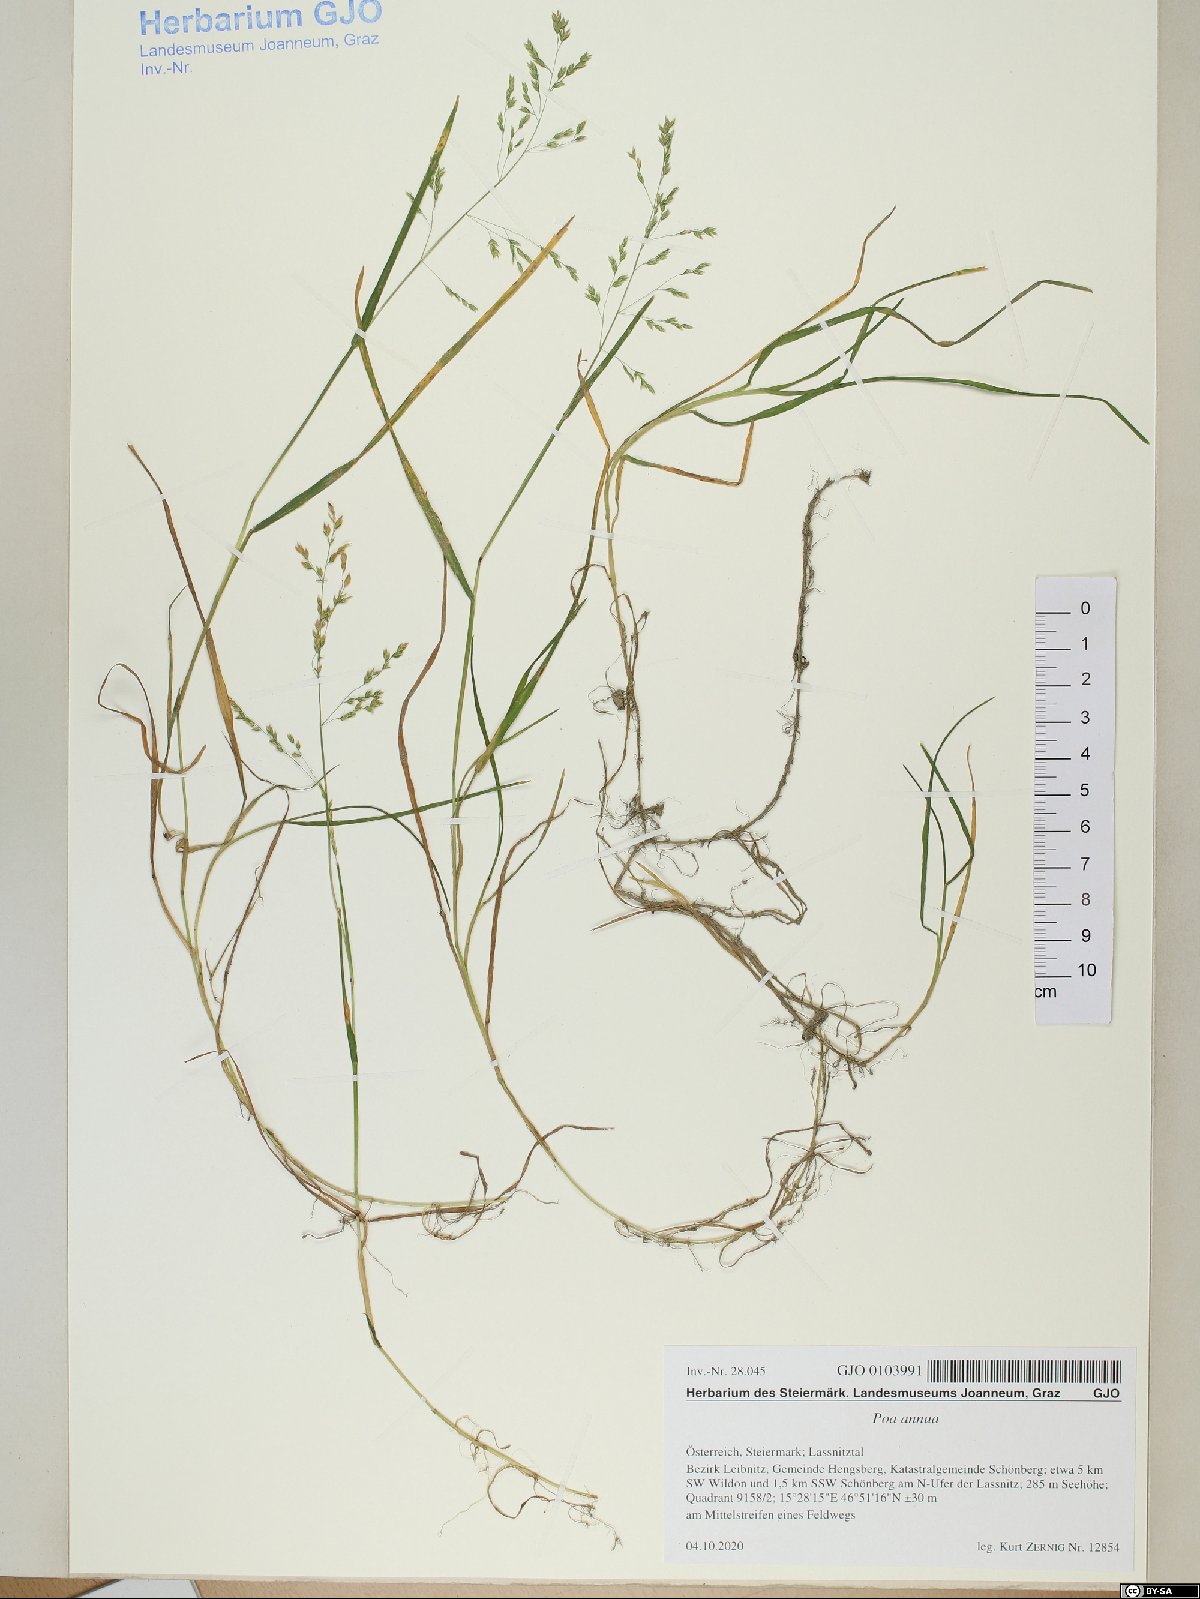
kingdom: Plantae
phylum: Tracheophyta
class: Liliopsida
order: Poales
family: Poaceae
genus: Poa
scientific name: Poa annua
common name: Annual bluegrass
